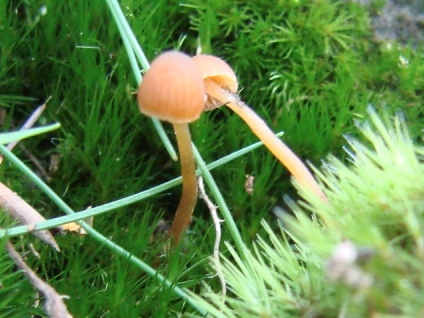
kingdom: Fungi
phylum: Basidiomycota
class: Agaricomycetes
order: Agaricales
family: Hymenogastraceae
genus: Galerina
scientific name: Galerina hypnorum
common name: mos-hjelmhat
